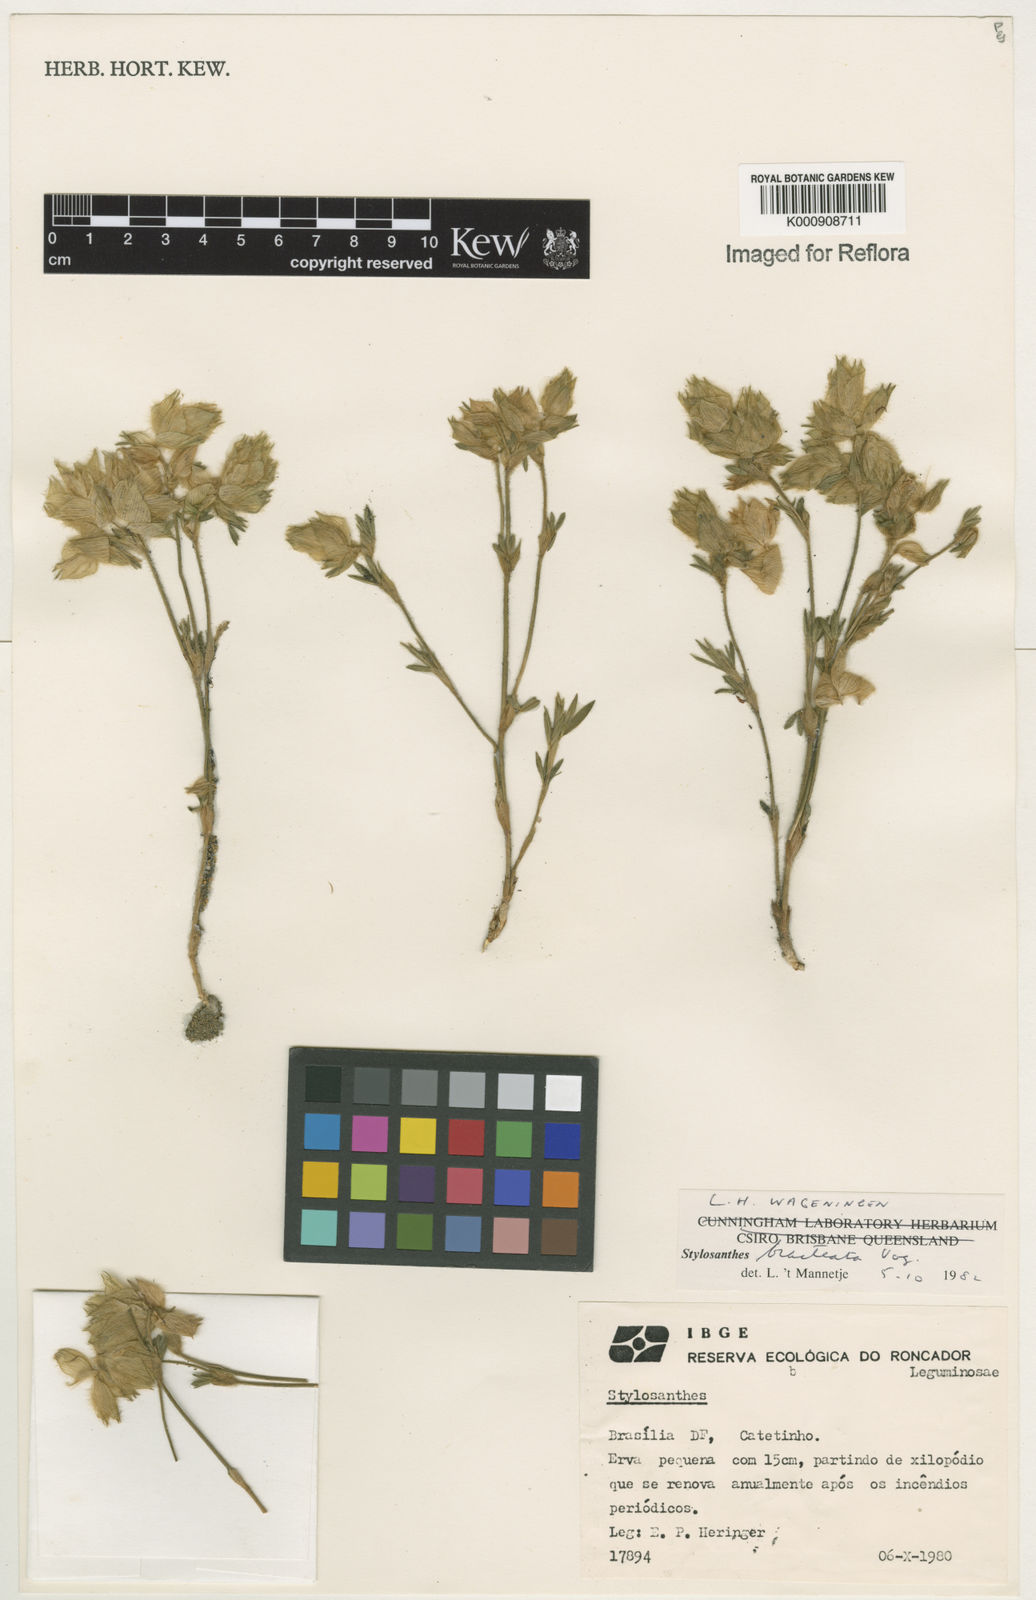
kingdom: Plantae
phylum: Tracheophyta
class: Magnoliopsida
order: Fabales
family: Fabaceae
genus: Stylosanthes
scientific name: Stylosanthes bracteata
